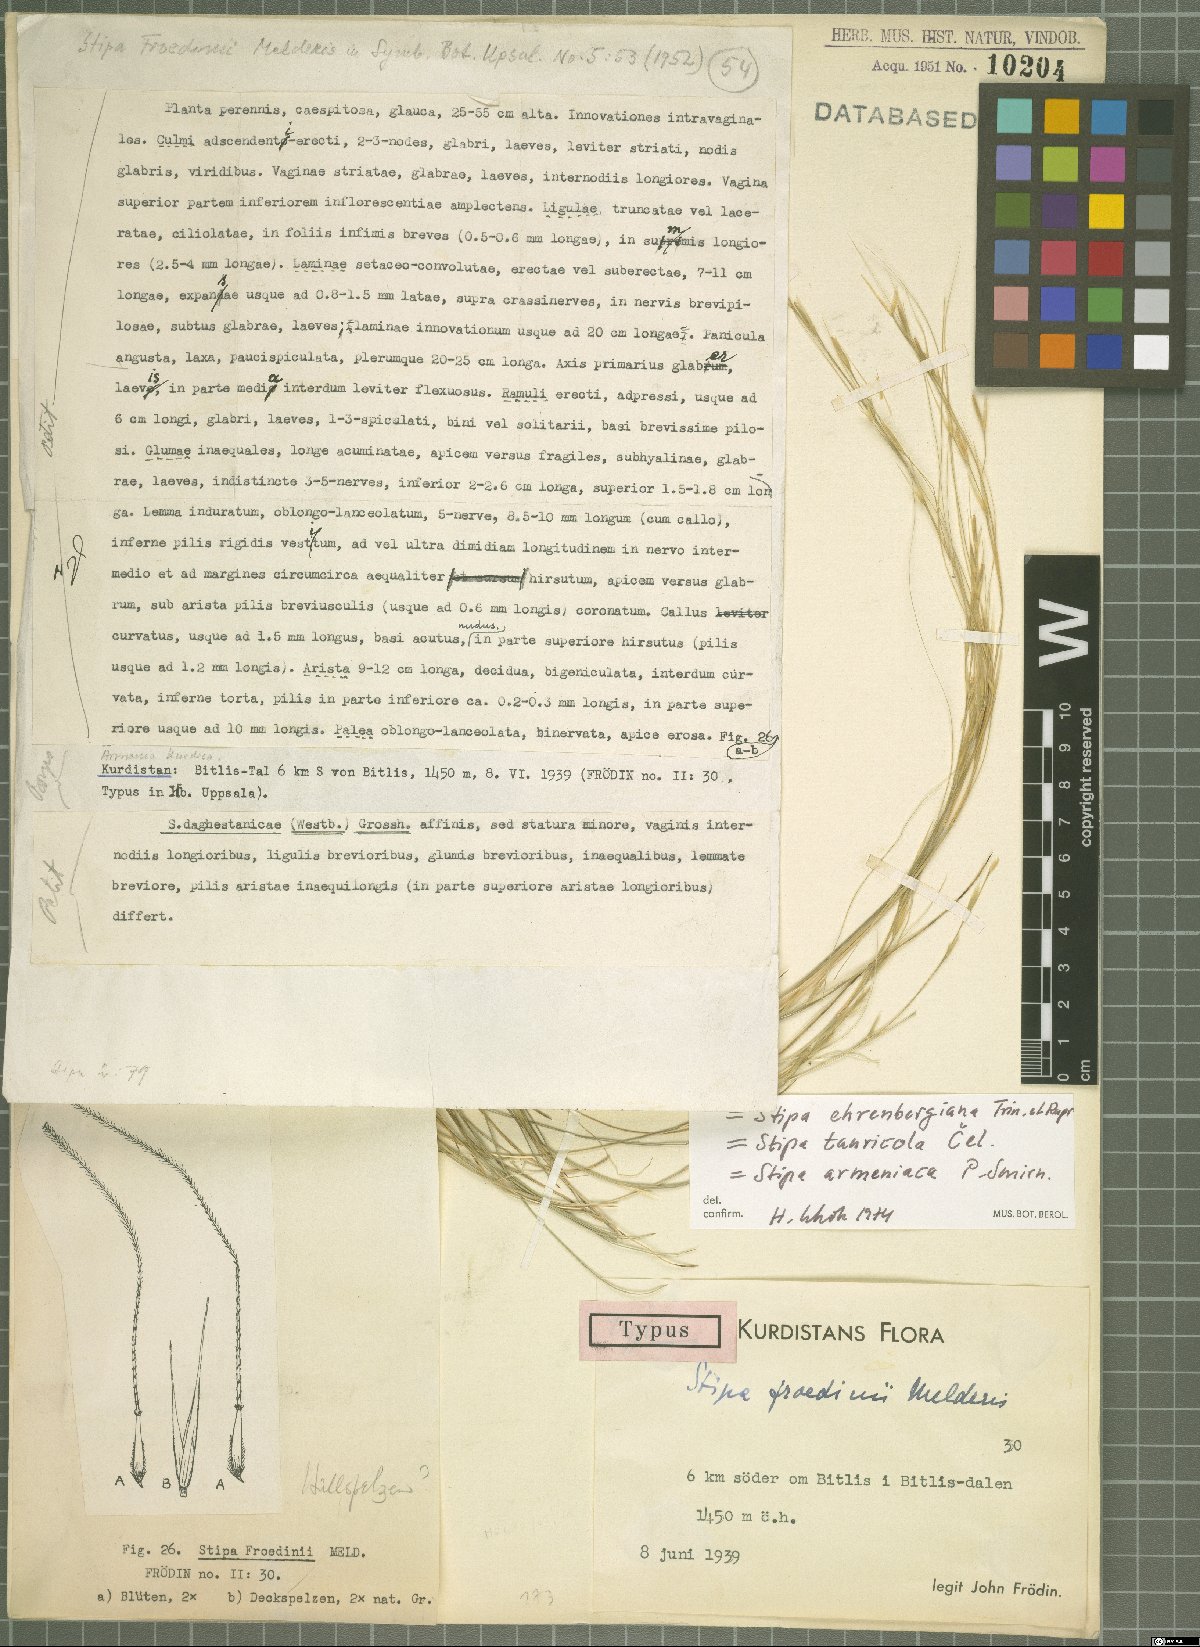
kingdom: Plantae
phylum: Tracheophyta
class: Liliopsida
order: Poales
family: Poaceae
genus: Stipa
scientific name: Stipa ehrenbergiana
